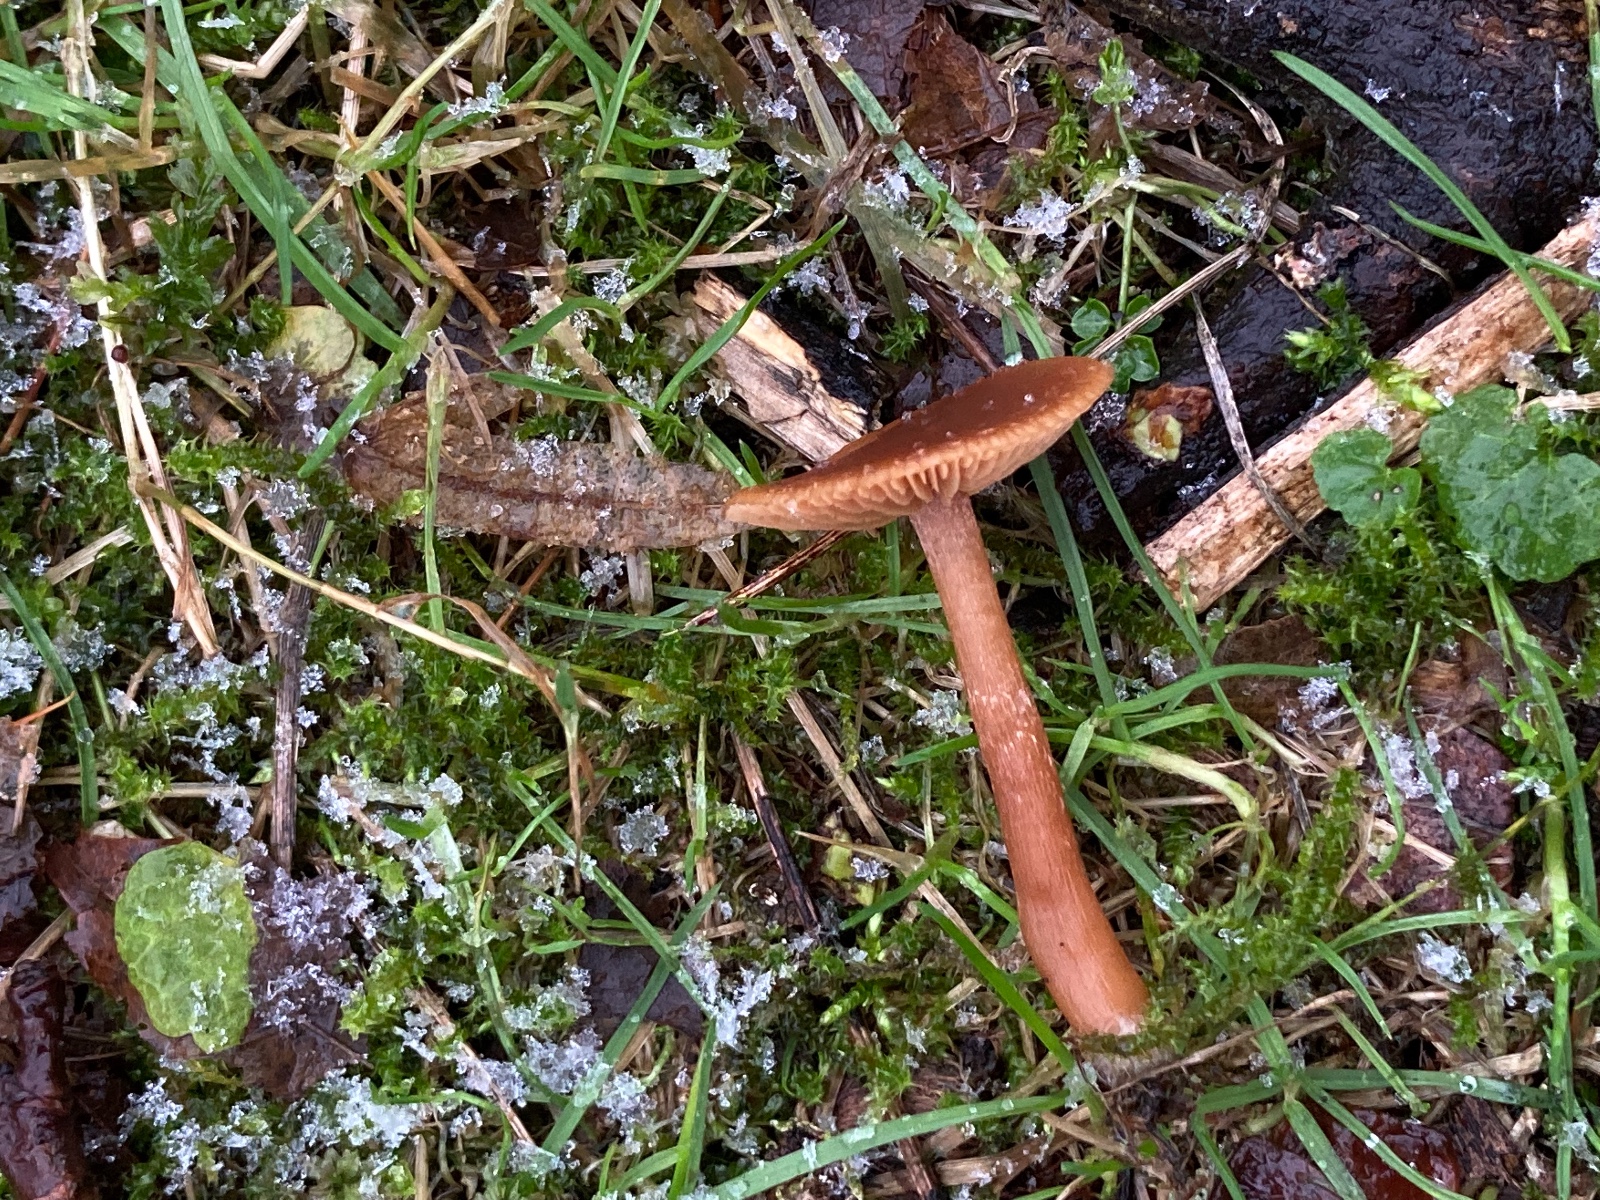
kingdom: Fungi
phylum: Basidiomycota
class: Agaricomycetes
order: Agaricales
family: Tubariaceae
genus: Tubaria
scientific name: Tubaria furfuracea
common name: kliddet fnughat
